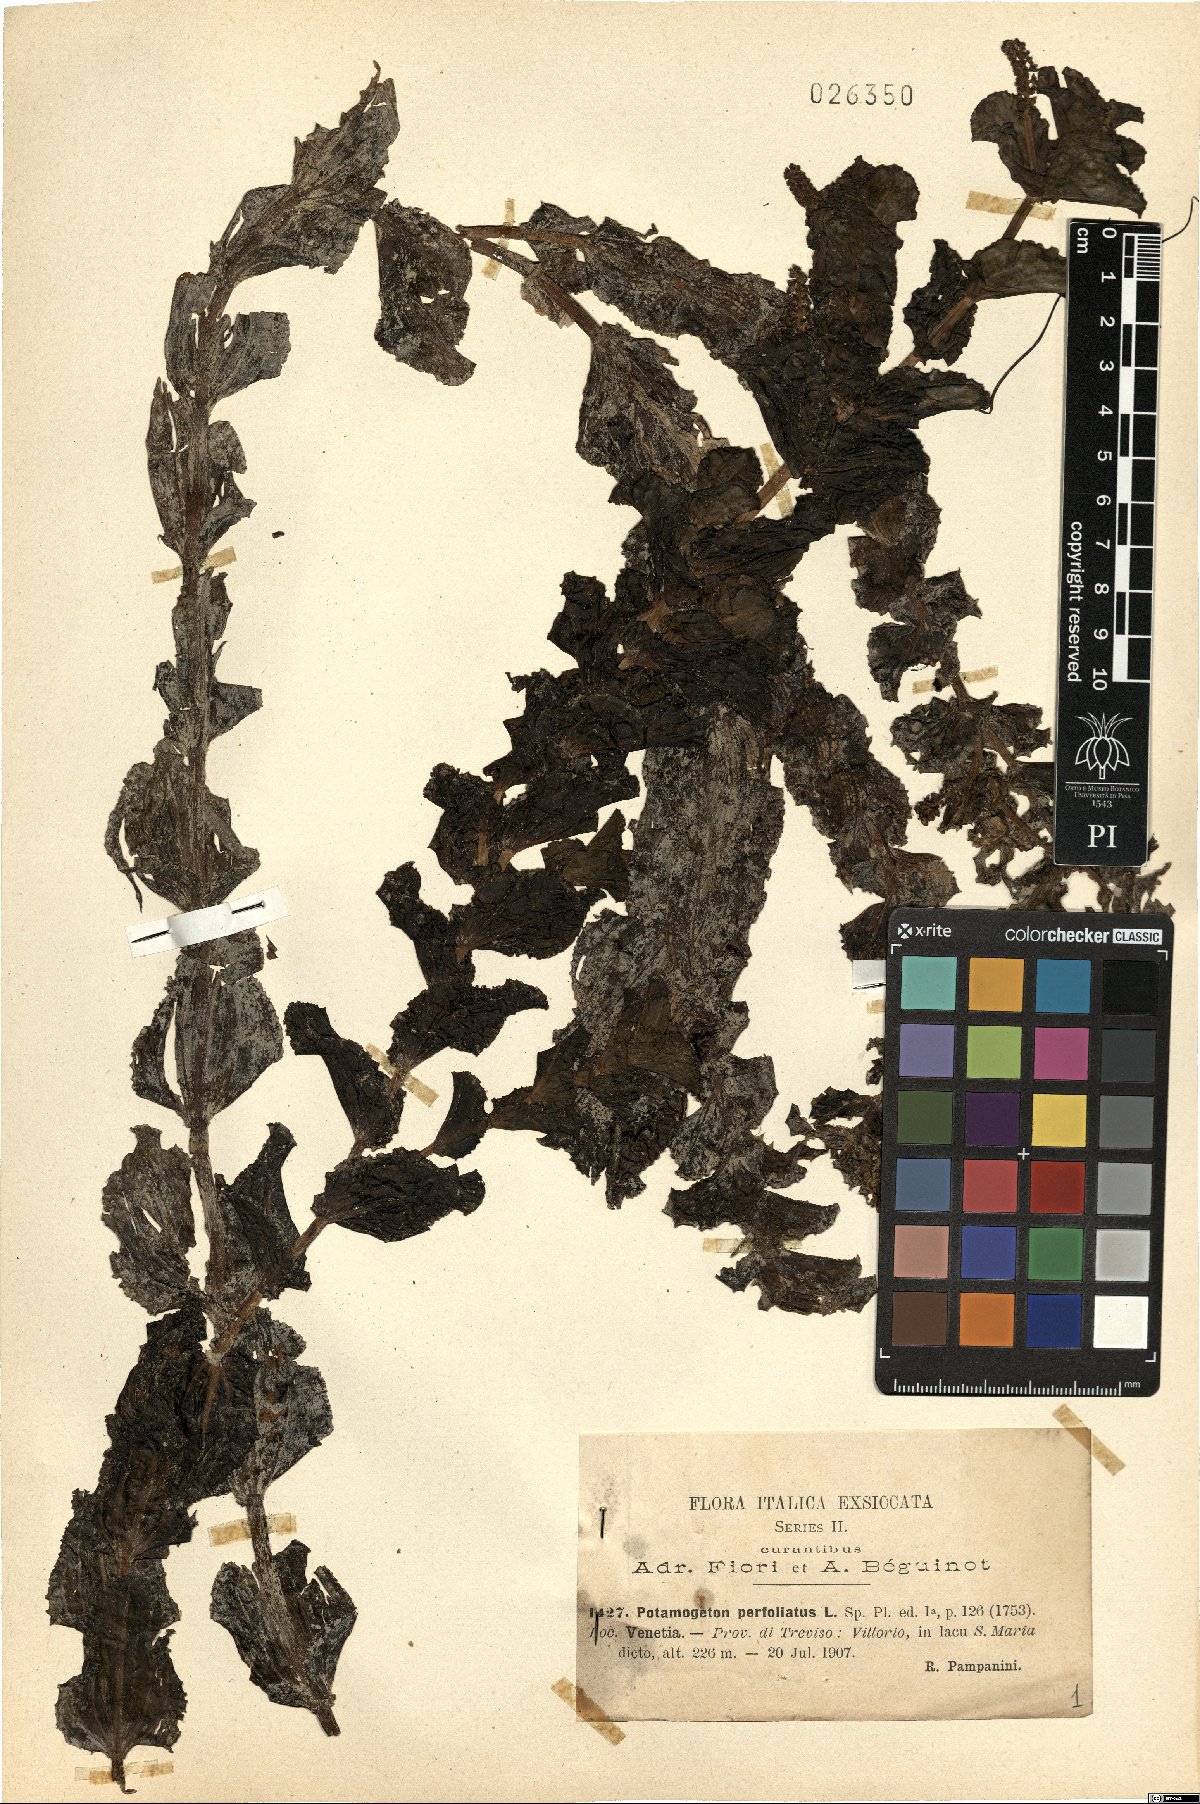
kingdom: Plantae
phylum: Tracheophyta
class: Liliopsida
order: Alismatales
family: Potamogetonaceae
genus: Potamogeton
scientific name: Potamogeton perfoliatus
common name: Perfoliate pondweed
